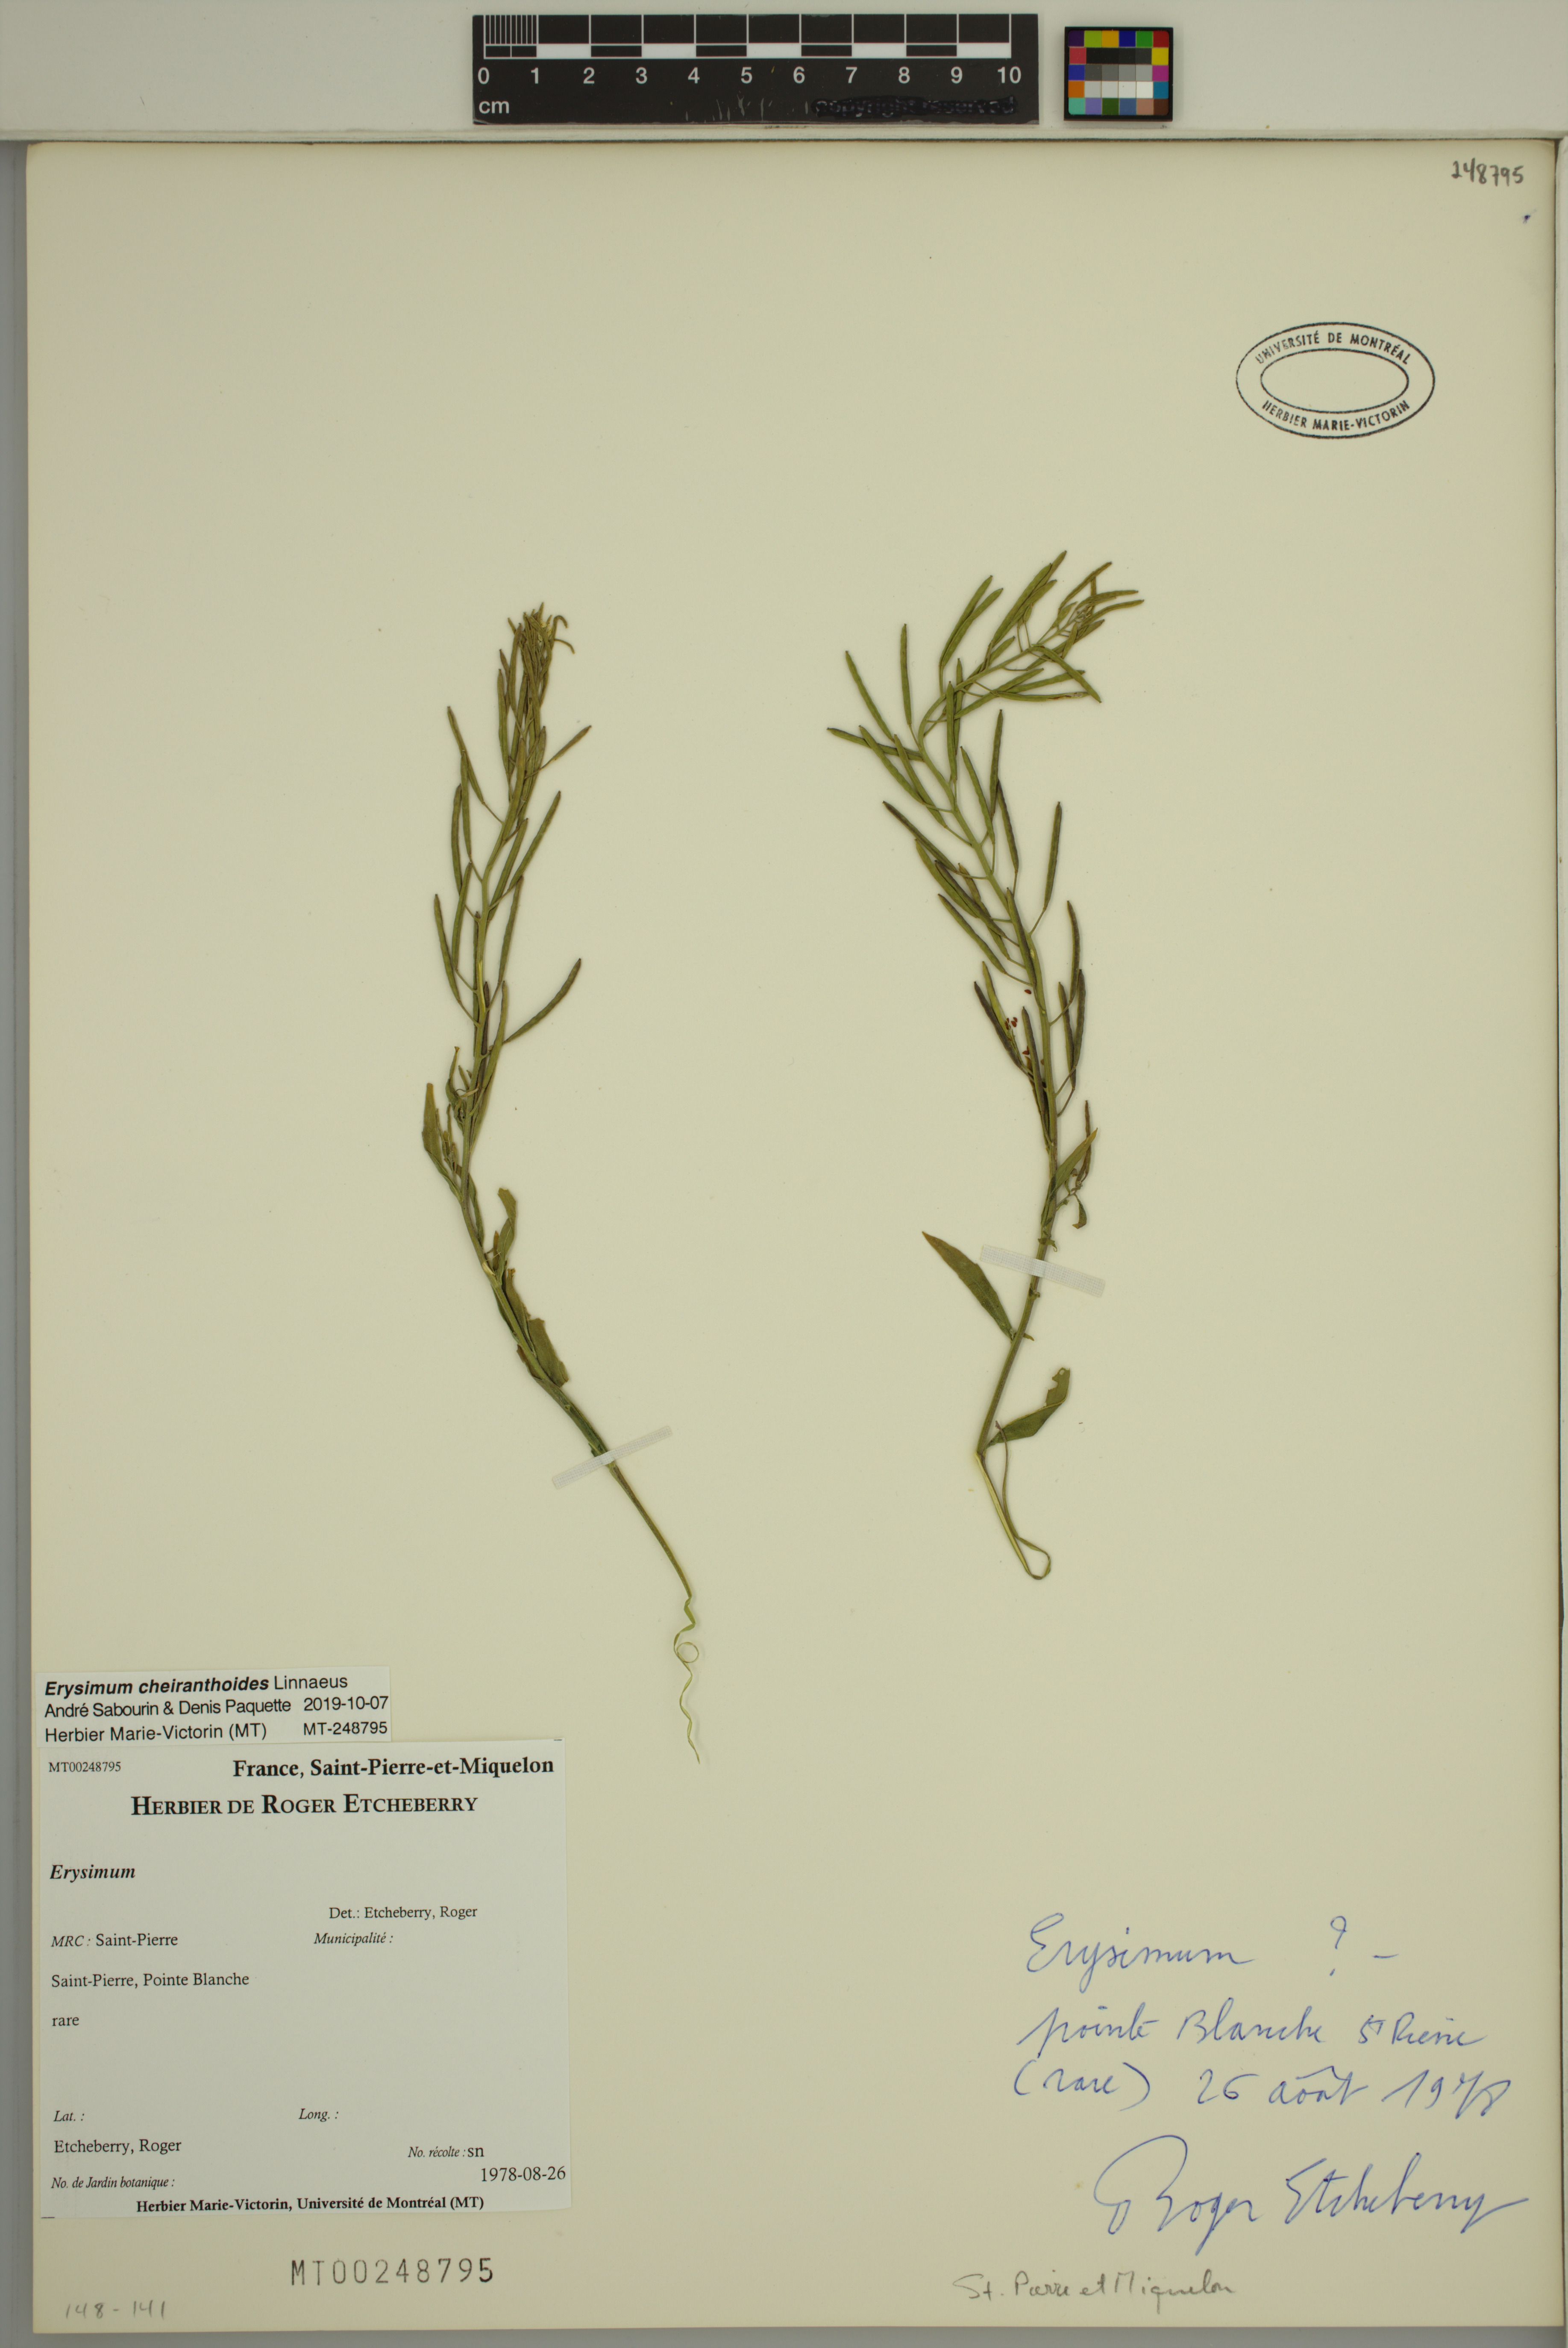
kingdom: Plantae
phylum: Tracheophyta
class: Magnoliopsida
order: Brassicales
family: Brassicaceae
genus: Erysimum
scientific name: Erysimum cheiranthoides
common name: Treacle mustard
